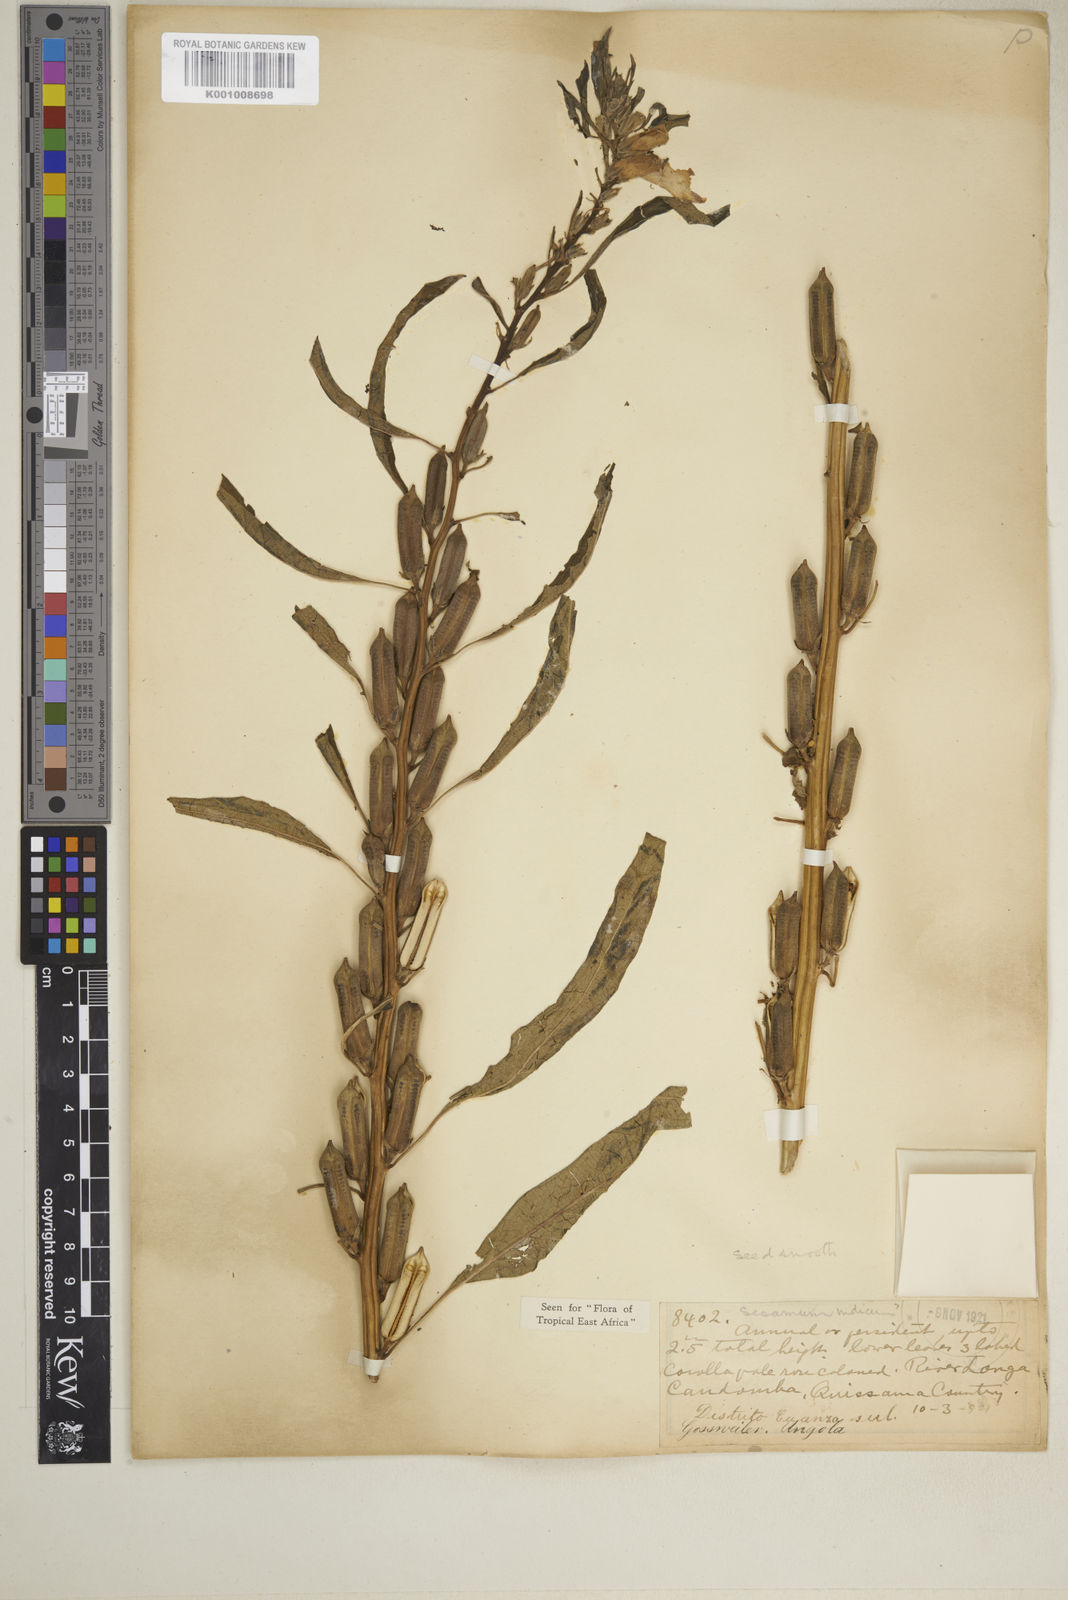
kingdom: Plantae
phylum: Tracheophyta
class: Magnoliopsida
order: Lamiales
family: Pedaliaceae
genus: Sesamum
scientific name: Sesamum indicum
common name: Sesame
